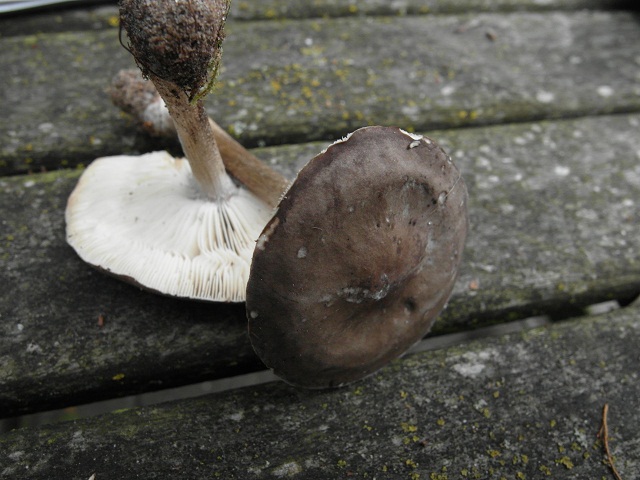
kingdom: Fungi
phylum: Basidiomycota
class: Agaricomycetes
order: Agaricales
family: Tricholomataceae
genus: Melanoleuca
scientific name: Melanoleuca polioleuca
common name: hvidbladet munkehat
